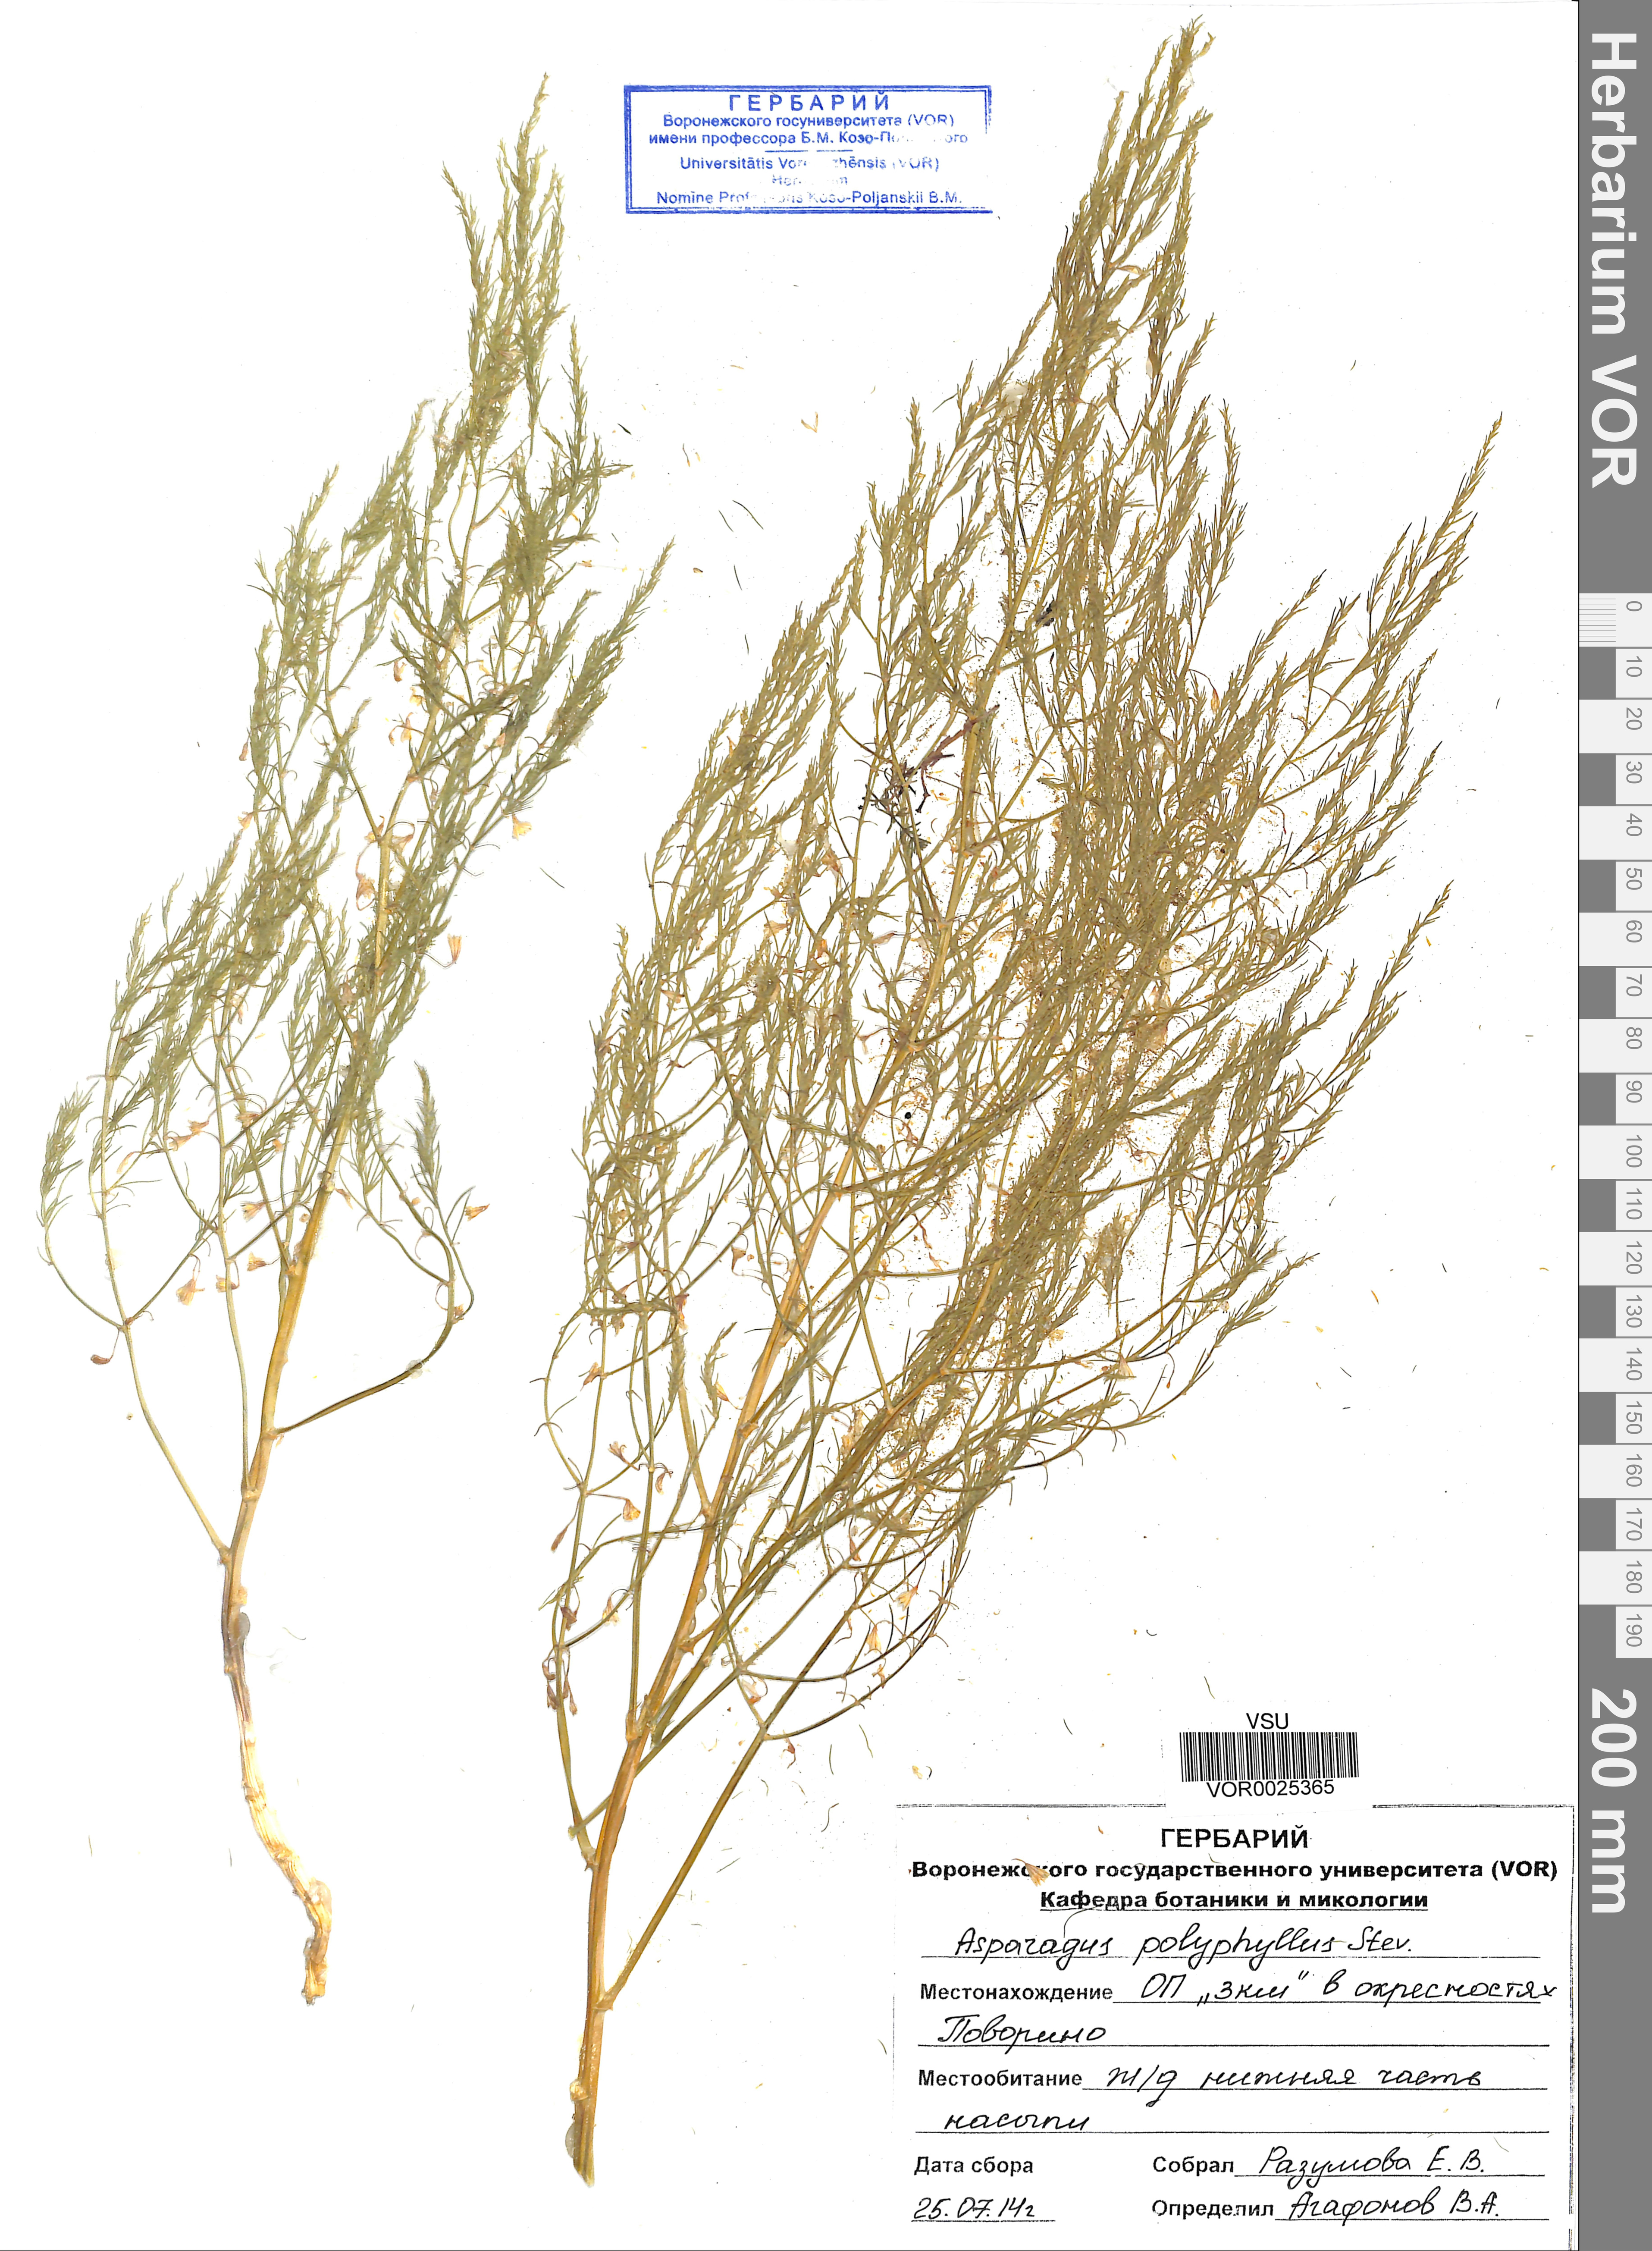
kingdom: Plantae
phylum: Tracheophyta
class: Liliopsida
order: Asparagales
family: Asparagaceae
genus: Asparagus
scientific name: Asparagus officinalis
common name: Garden asparagus
